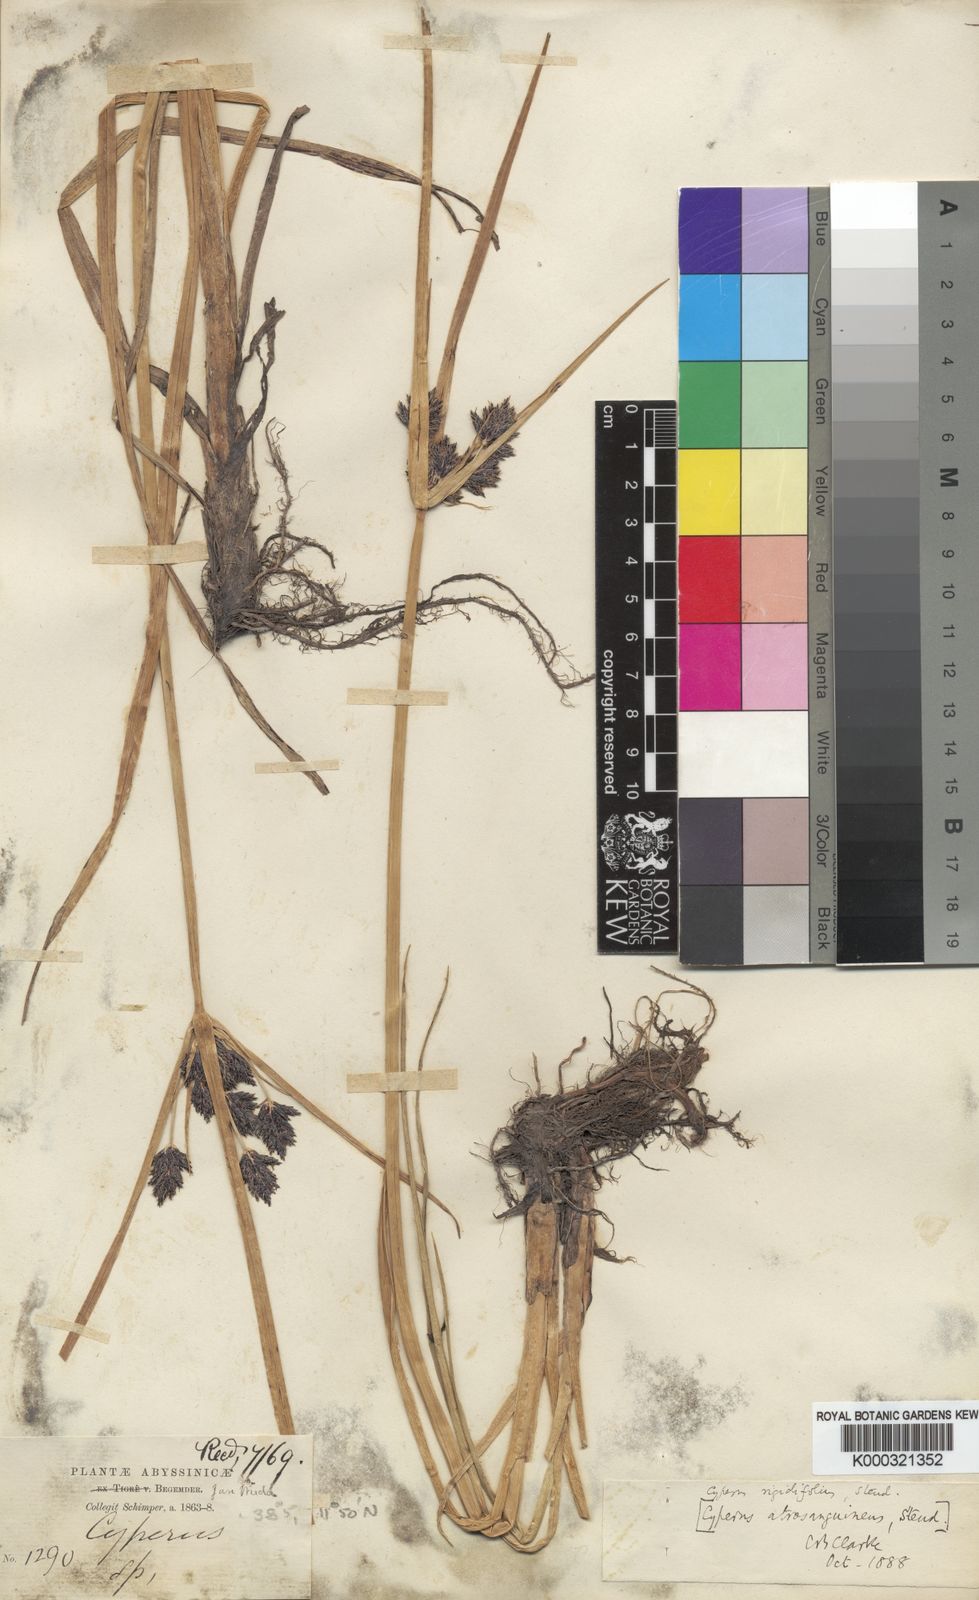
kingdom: Plantae
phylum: Tracheophyta
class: Liliopsida
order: Poales
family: Cyperaceae
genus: Cyperus
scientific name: Cyperus rigidifolius
